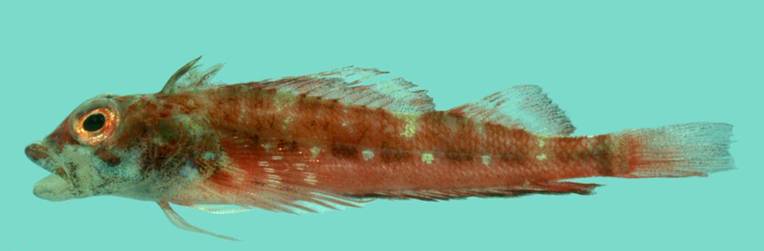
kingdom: Animalia
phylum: Chordata
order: Perciformes
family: Tripterygiidae
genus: Helcogramma
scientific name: Helcogramma rosea
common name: Rosy triplefin
